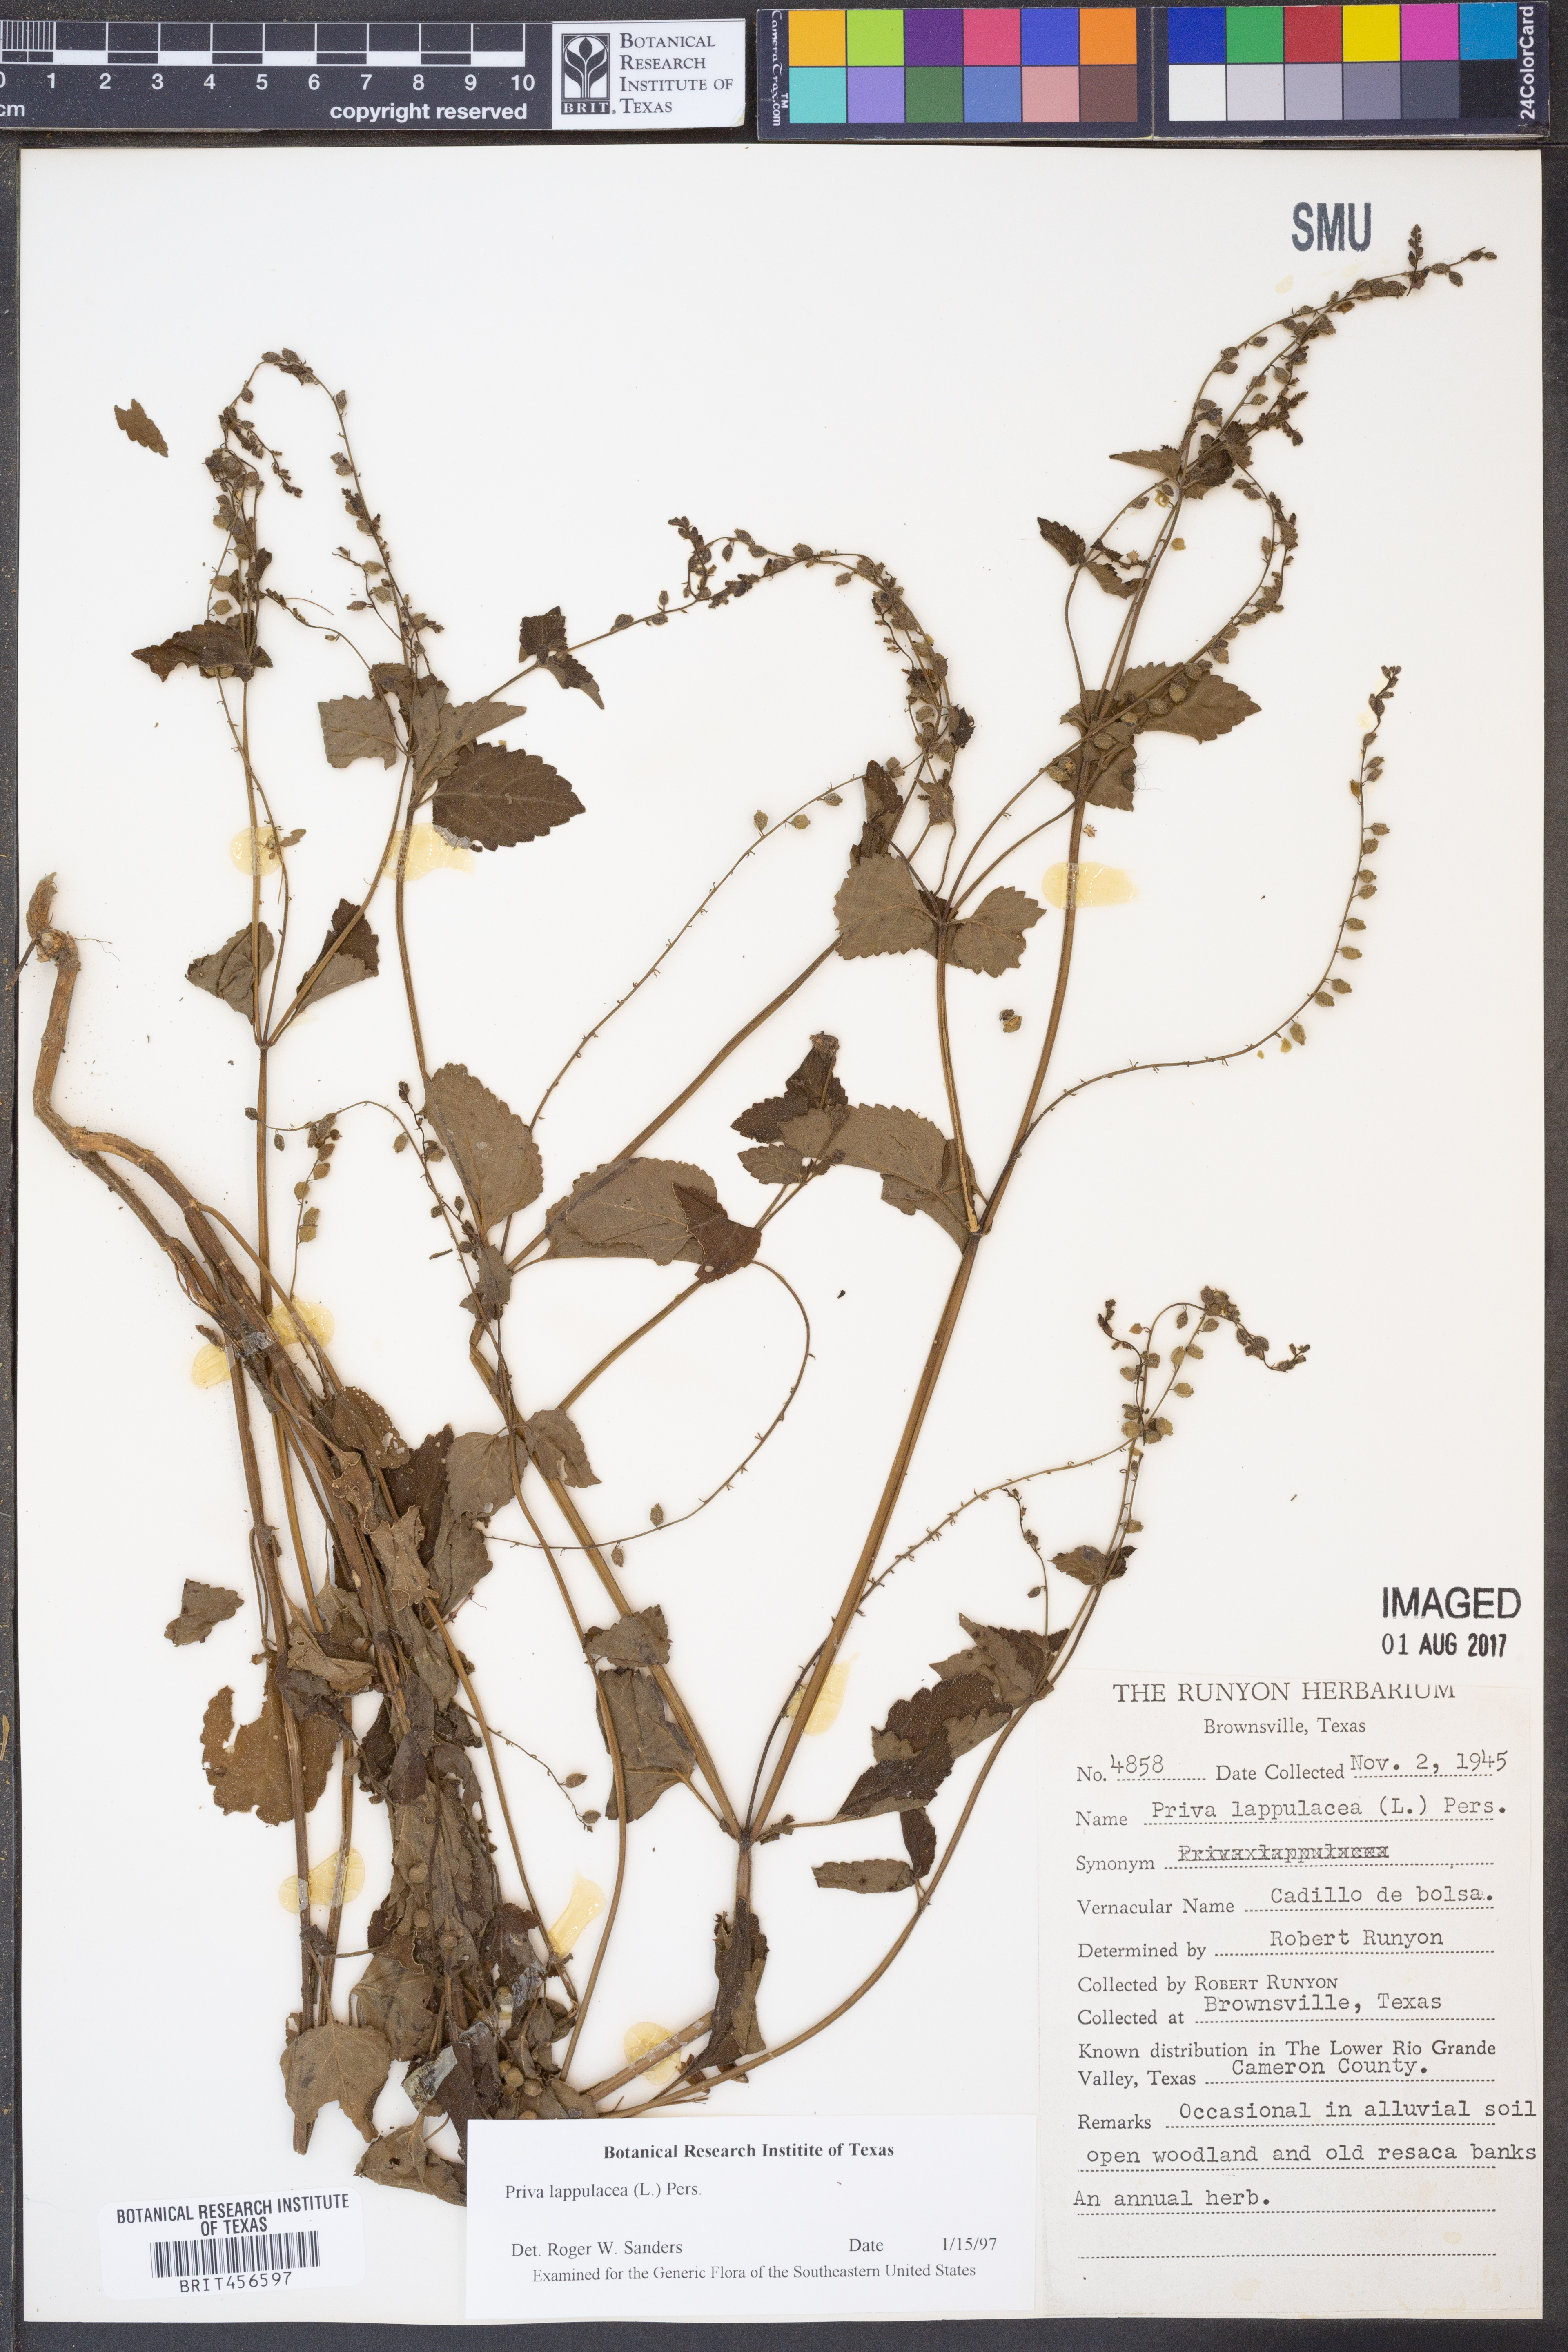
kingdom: Plantae
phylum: Tracheophyta
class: Magnoliopsida
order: Lamiales
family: Verbenaceae
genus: Priva
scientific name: Priva lappulacea
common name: Fasten-'pon-coat
